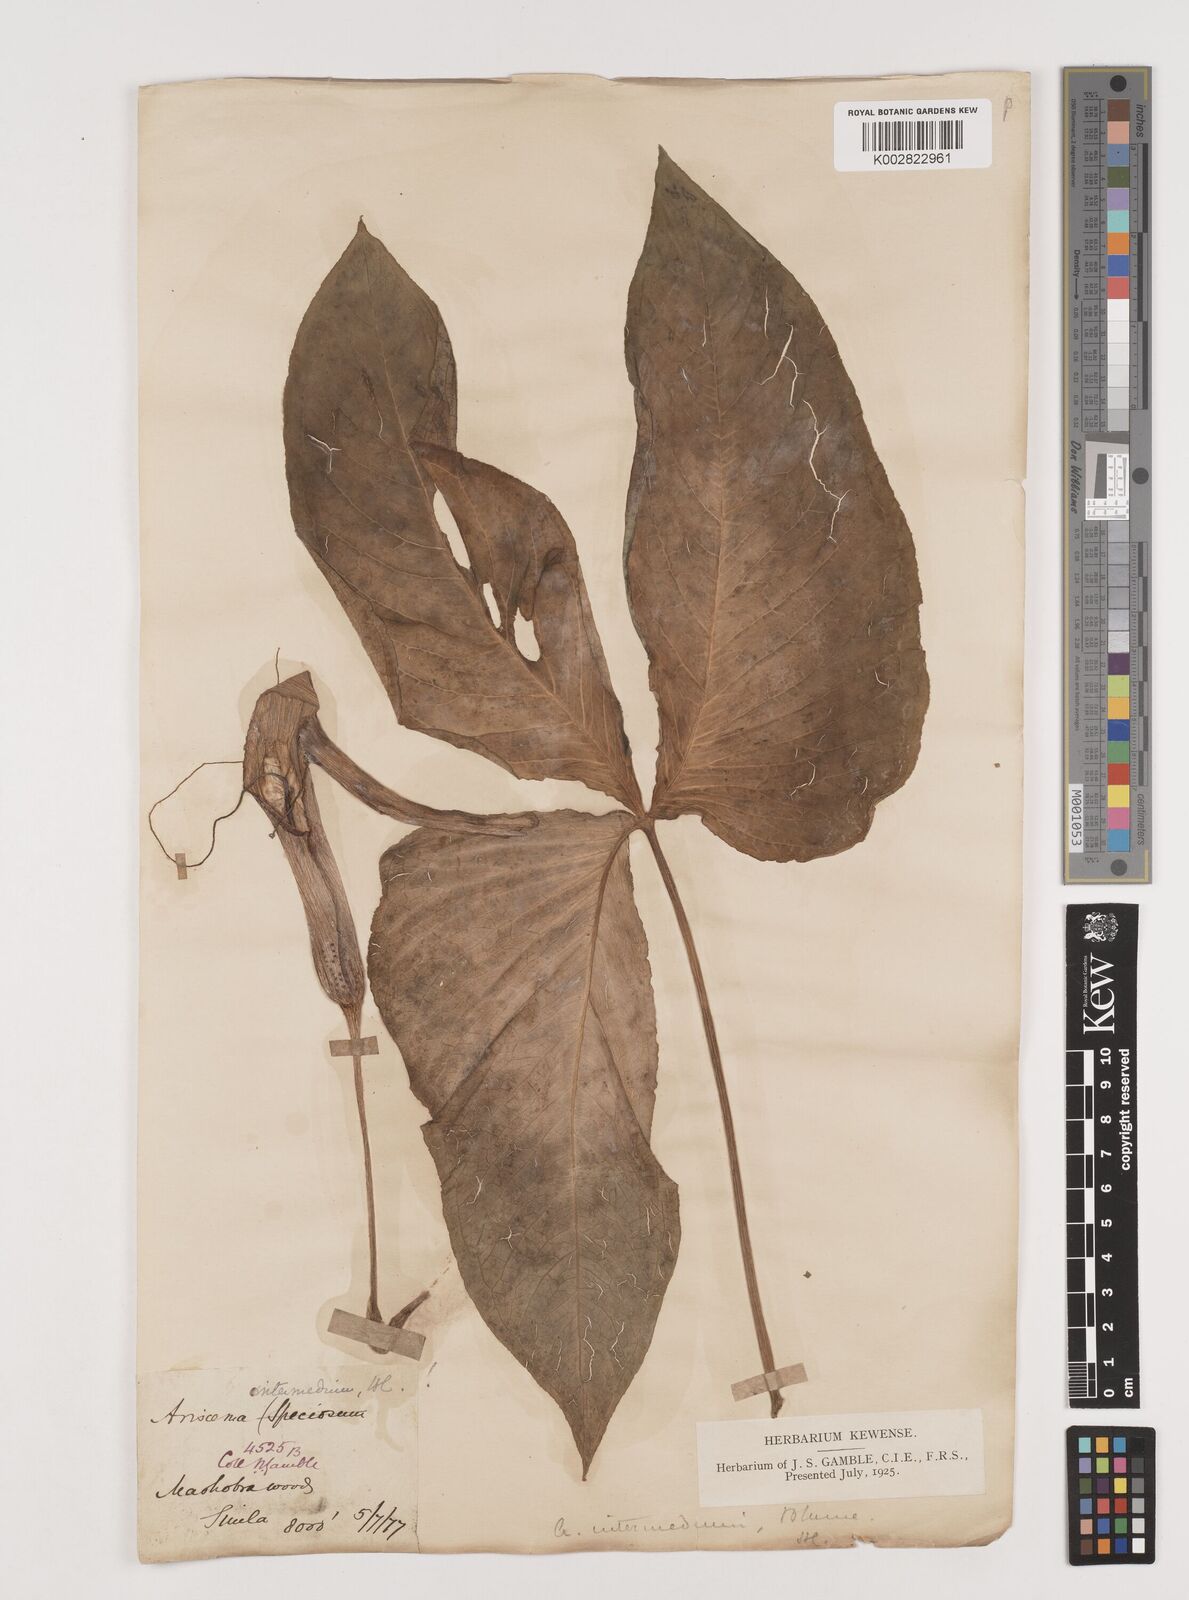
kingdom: Plantae
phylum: Tracheophyta
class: Liliopsida
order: Alismatales
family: Araceae
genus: Arisaema
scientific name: Arisaema intermedium
